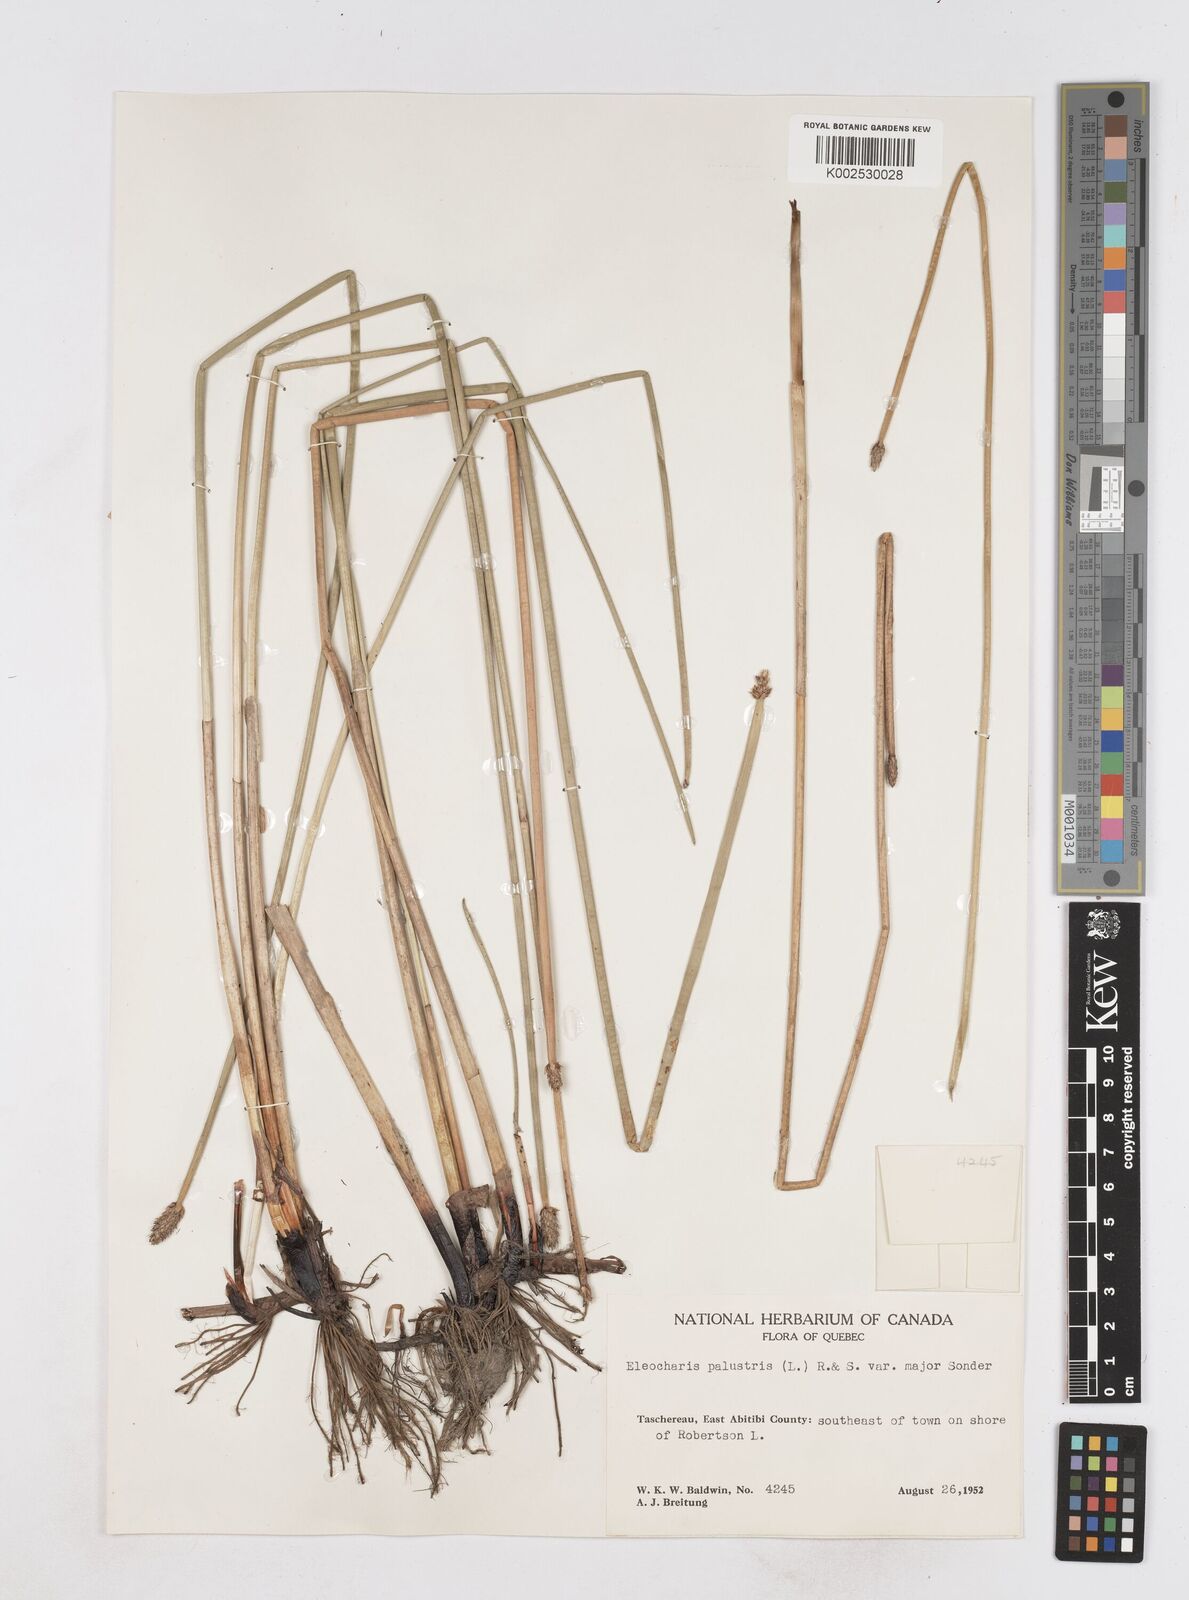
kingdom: Plantae
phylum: Tracheophyta
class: Liliopsida
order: Poales
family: Cyperaceae
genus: Eleocharis
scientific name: Eleocharis palustris
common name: Common spike-rush
